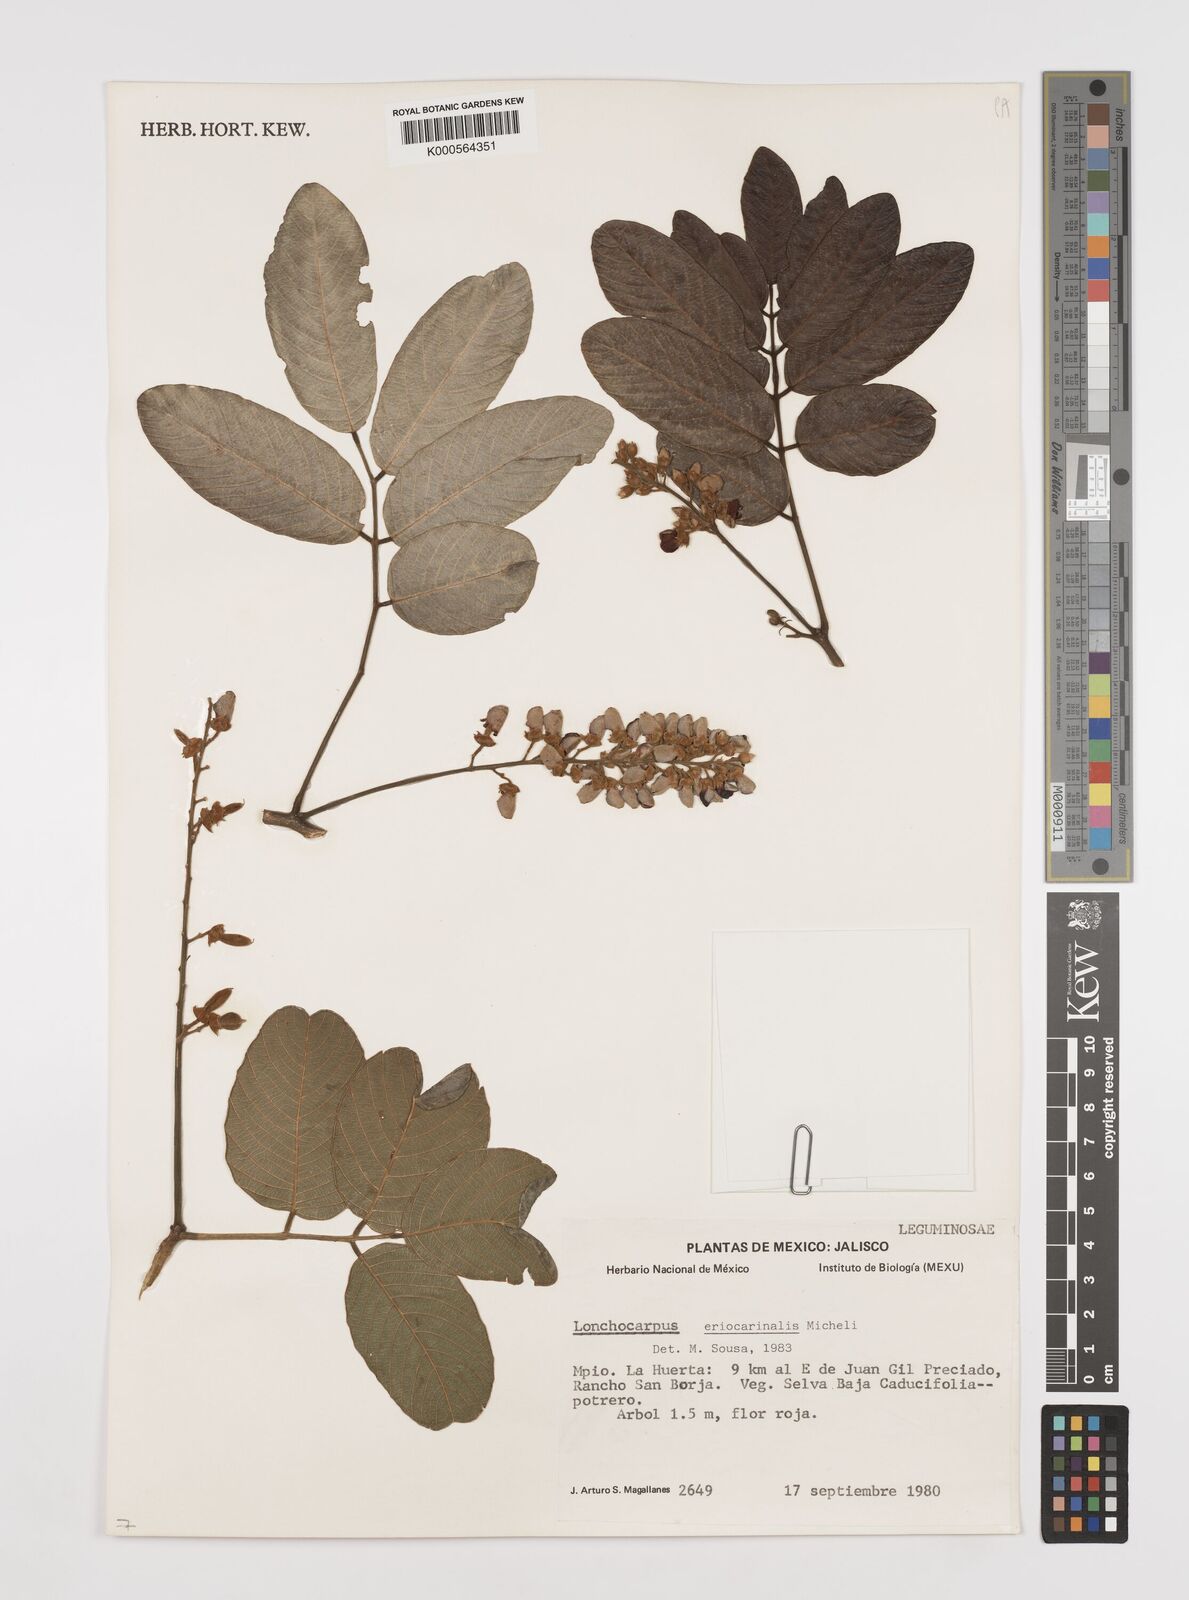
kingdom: Plantae
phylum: Tracheophyta
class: Magnoliopsida
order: Fabales
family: Fabaceae
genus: Lonchocarpus
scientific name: Lonchocarpus eriocarinalis
